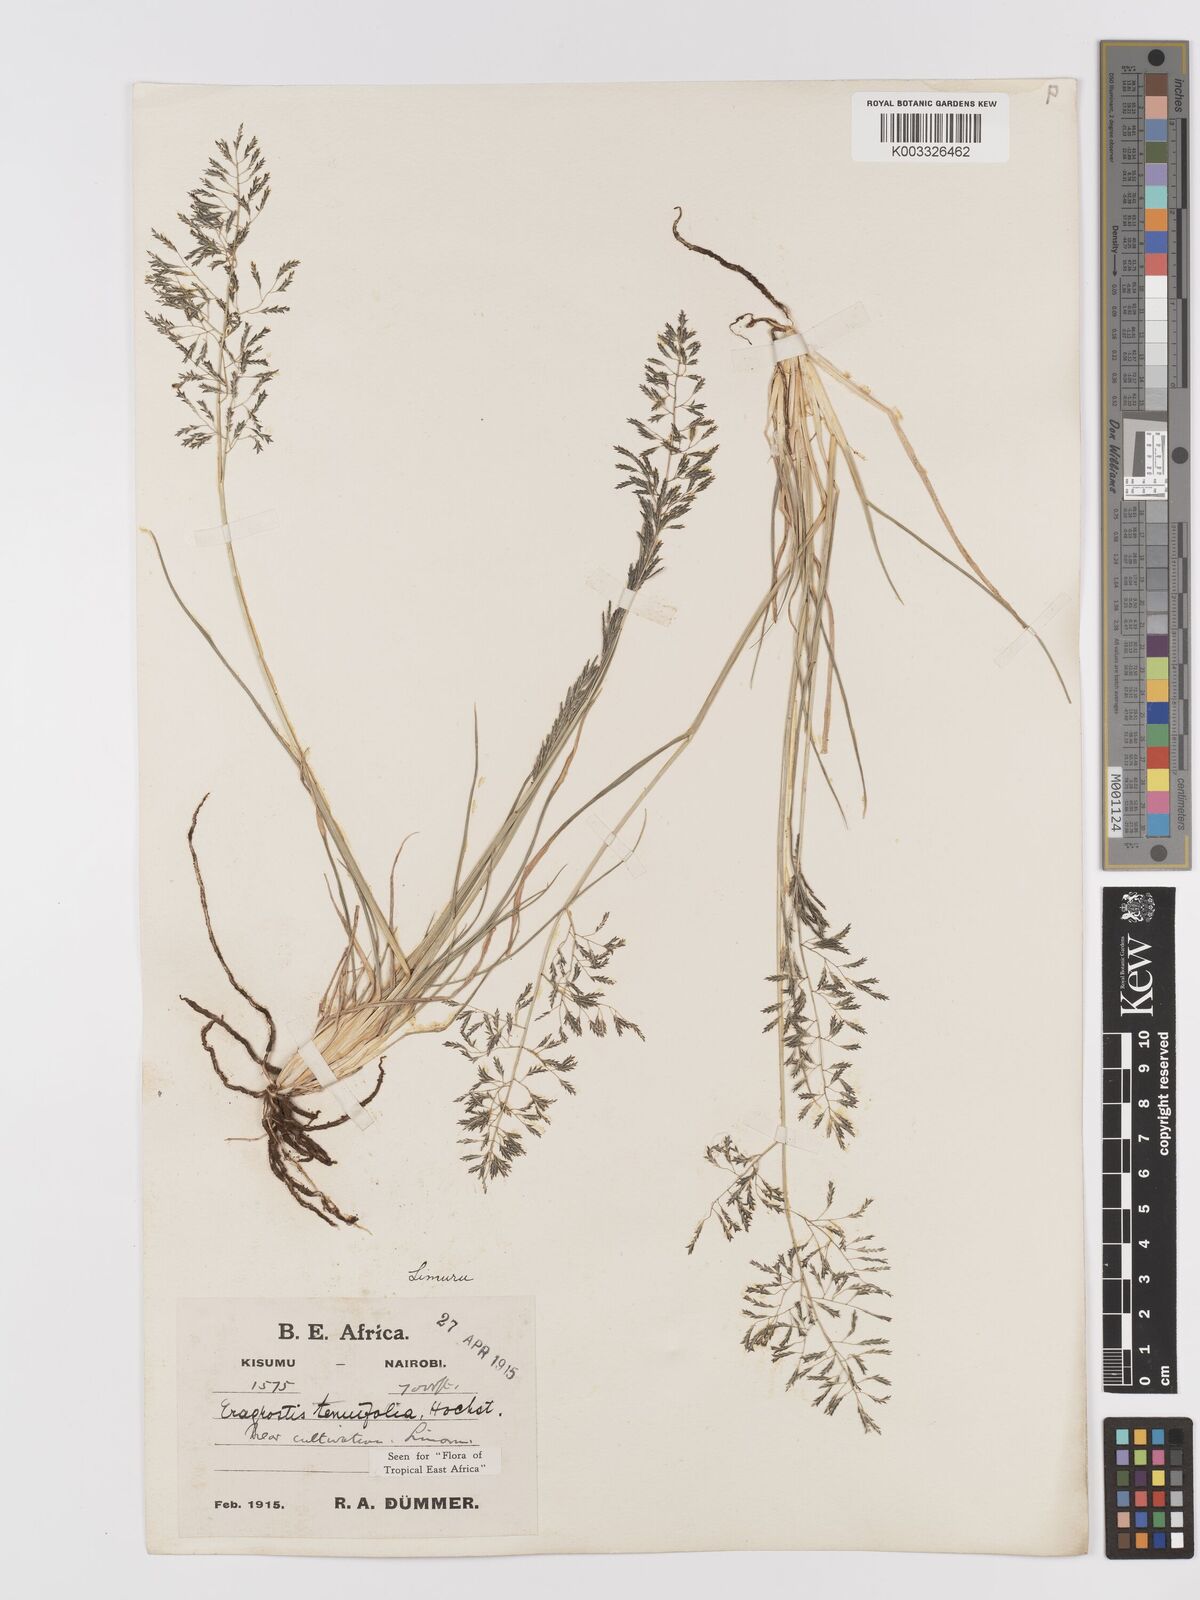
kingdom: Plantae
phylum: Tracheophyta
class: Liliopsida
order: Poales
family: Poaceae
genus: Eragrostis
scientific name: Eragrostis tenuifolia
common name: Elastic grass
